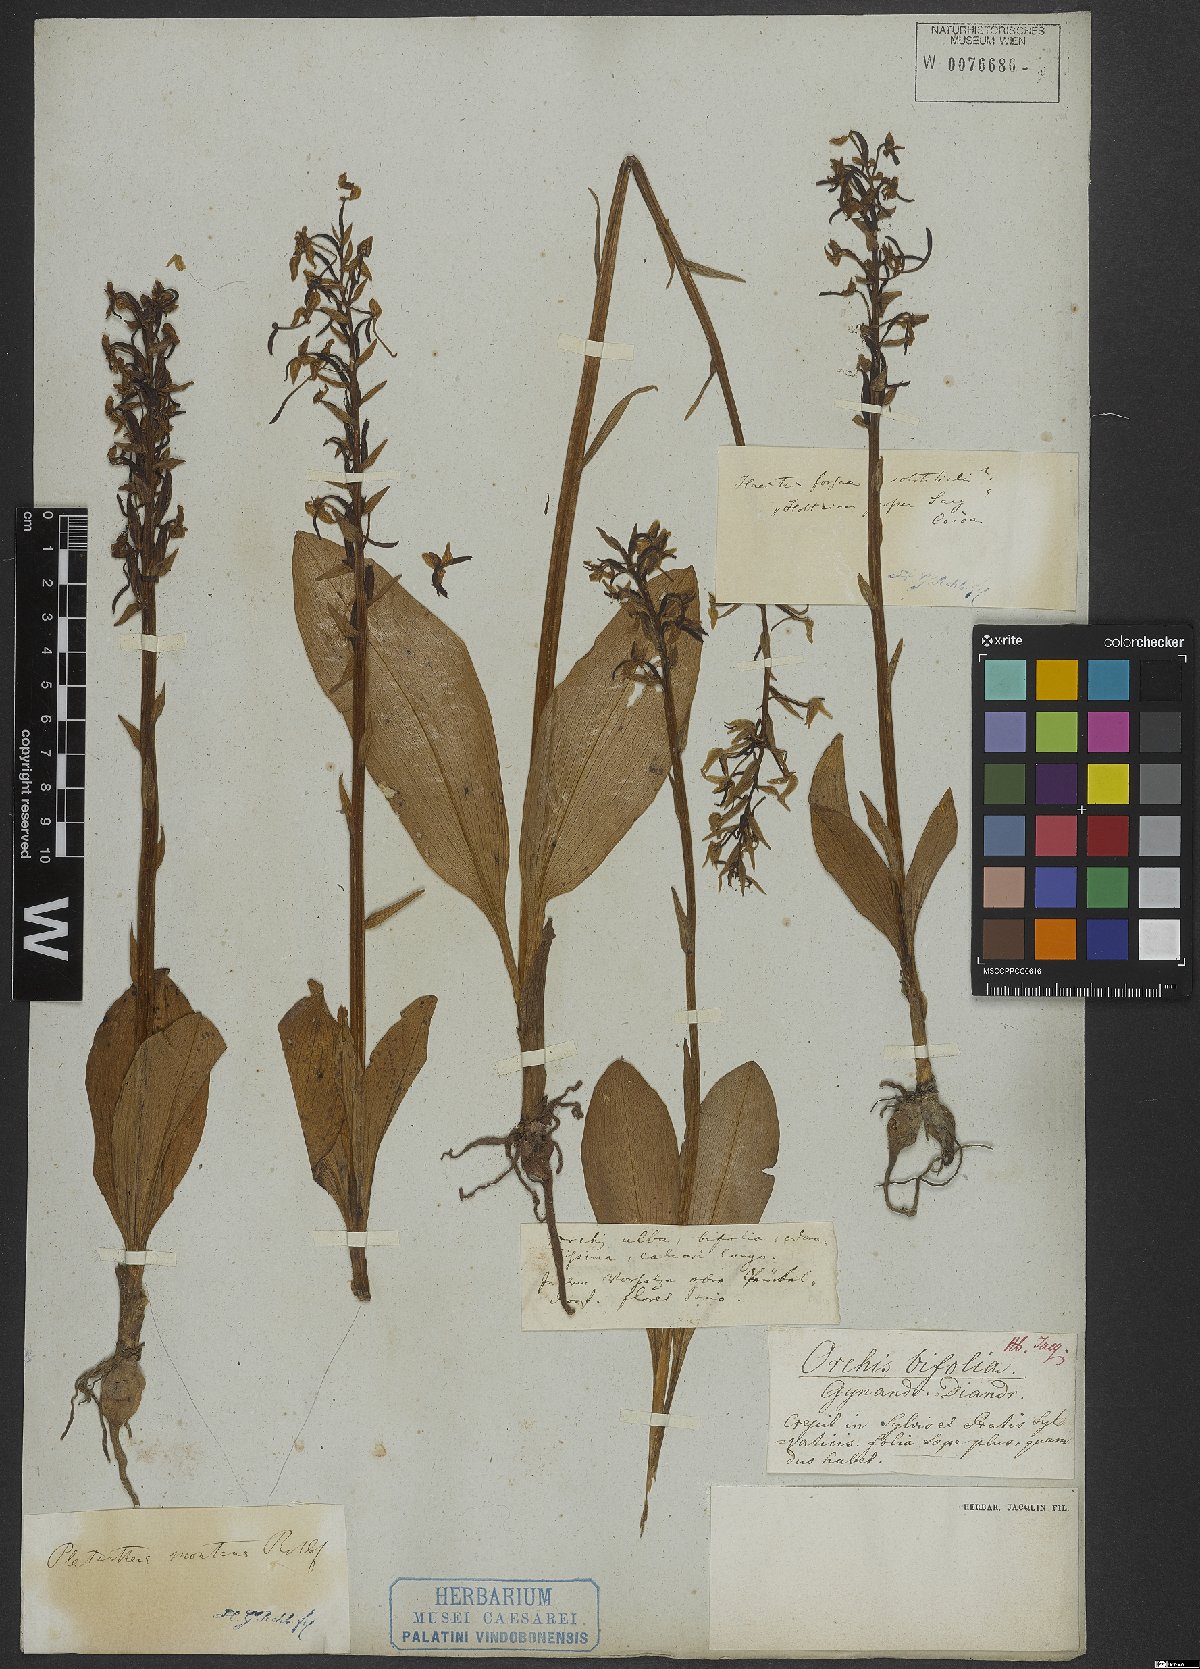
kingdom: Plantae
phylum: Tracheophyta
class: Liliopsida
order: Asparagales
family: Orchidaceae
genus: Platanthera
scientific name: Platanthera chlorantha
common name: Greater butterfly-orchid
